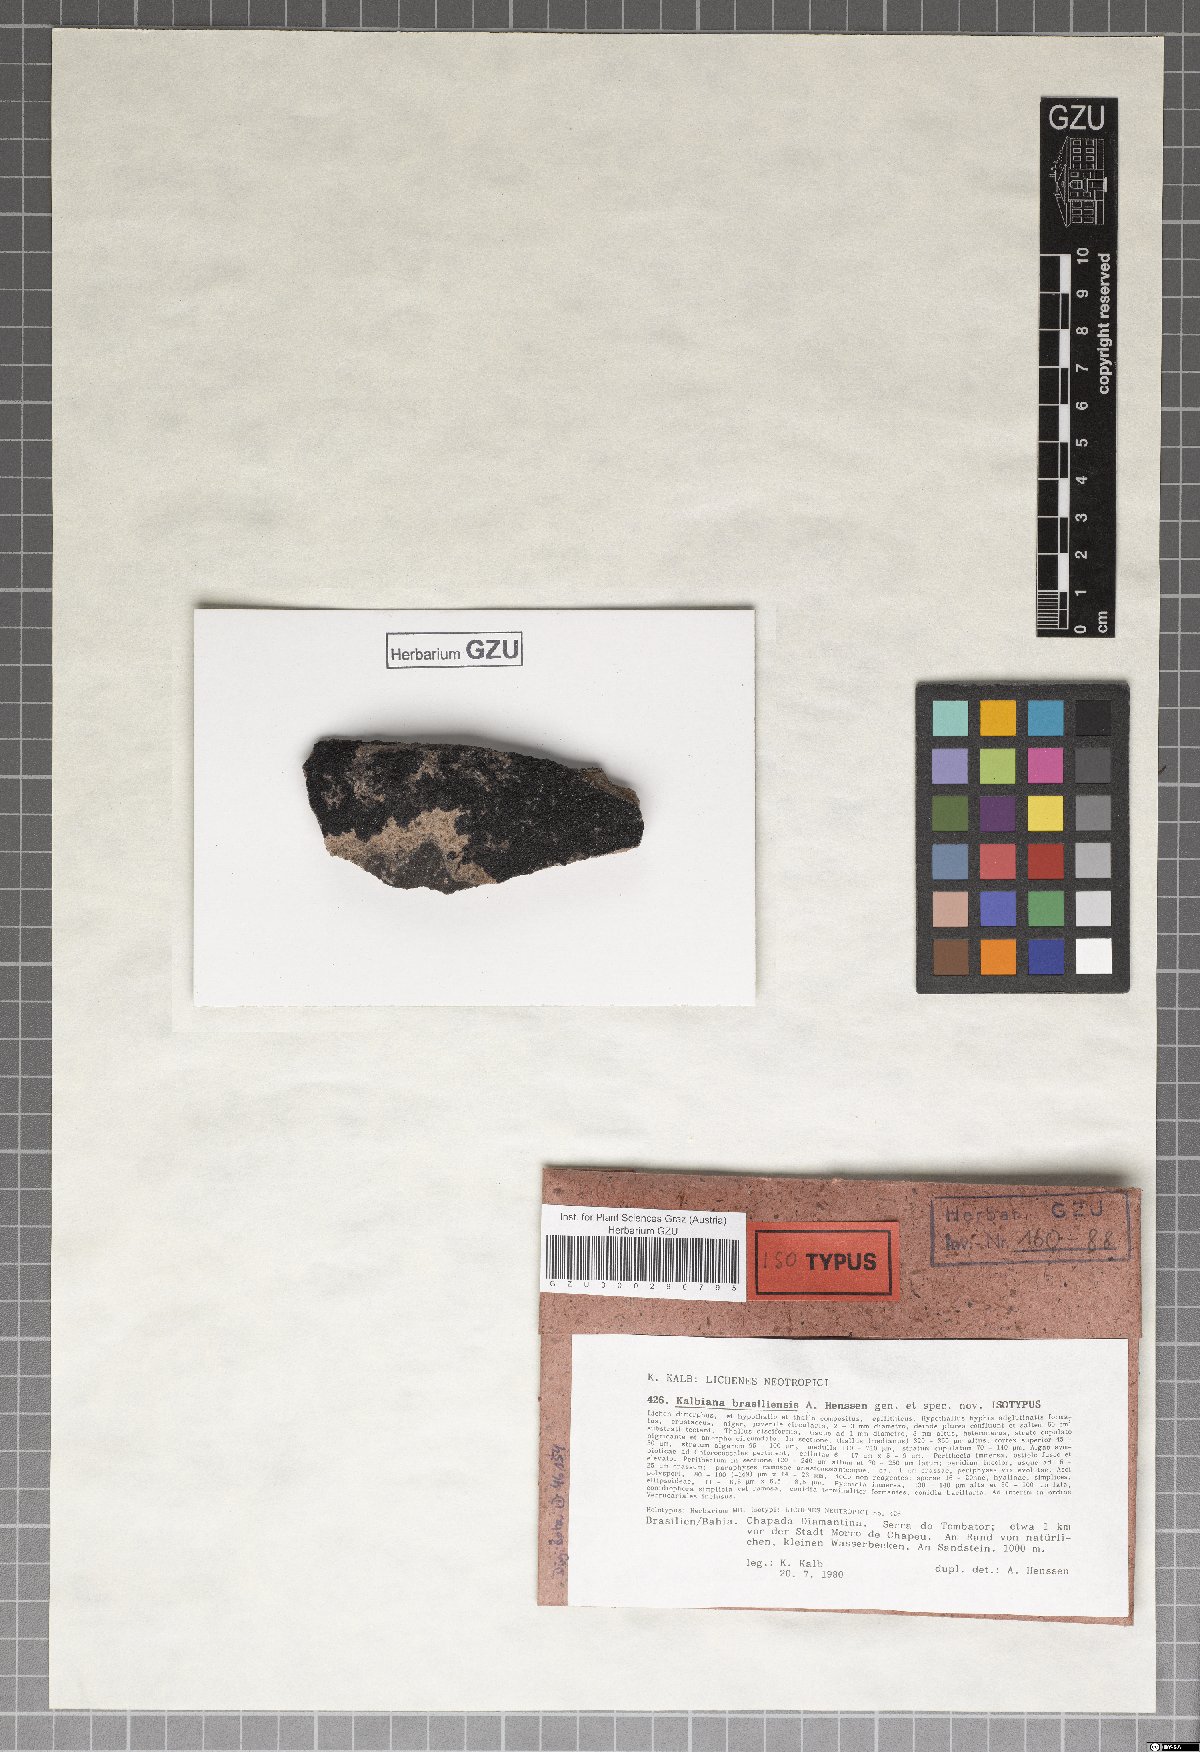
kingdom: Fungi
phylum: Ascomycota
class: Eurotiomycetes
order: Verrucariales
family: Verrucariaceae
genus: Kalbiana
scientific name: Kalbiana brasiliensis
